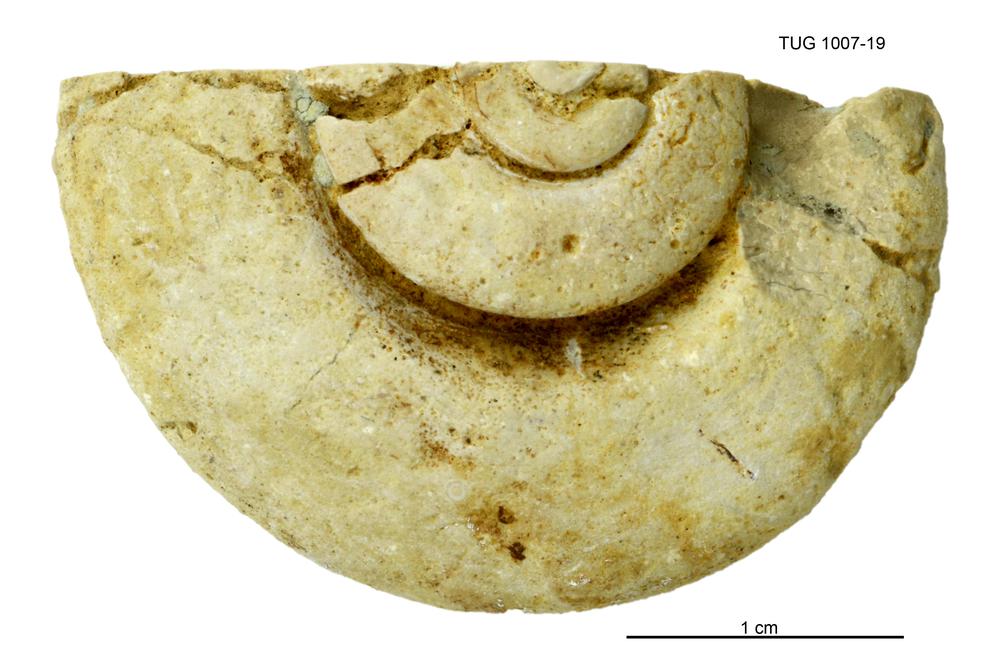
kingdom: Animalia
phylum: Mollusca
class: Gastropoda
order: Pleurotomariida
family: Eotomariidae
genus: Liospira
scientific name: Liospira Raphistoma wesenbergense
